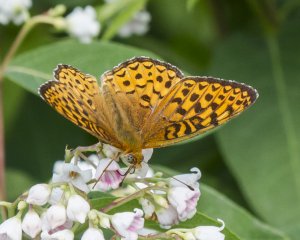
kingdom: Animalia
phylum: Arthropoda
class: Insecta
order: Lepidoptera
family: Nymphalidae
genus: Speyeria
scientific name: Speyeria atlantis
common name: Atlantis Fritillary
